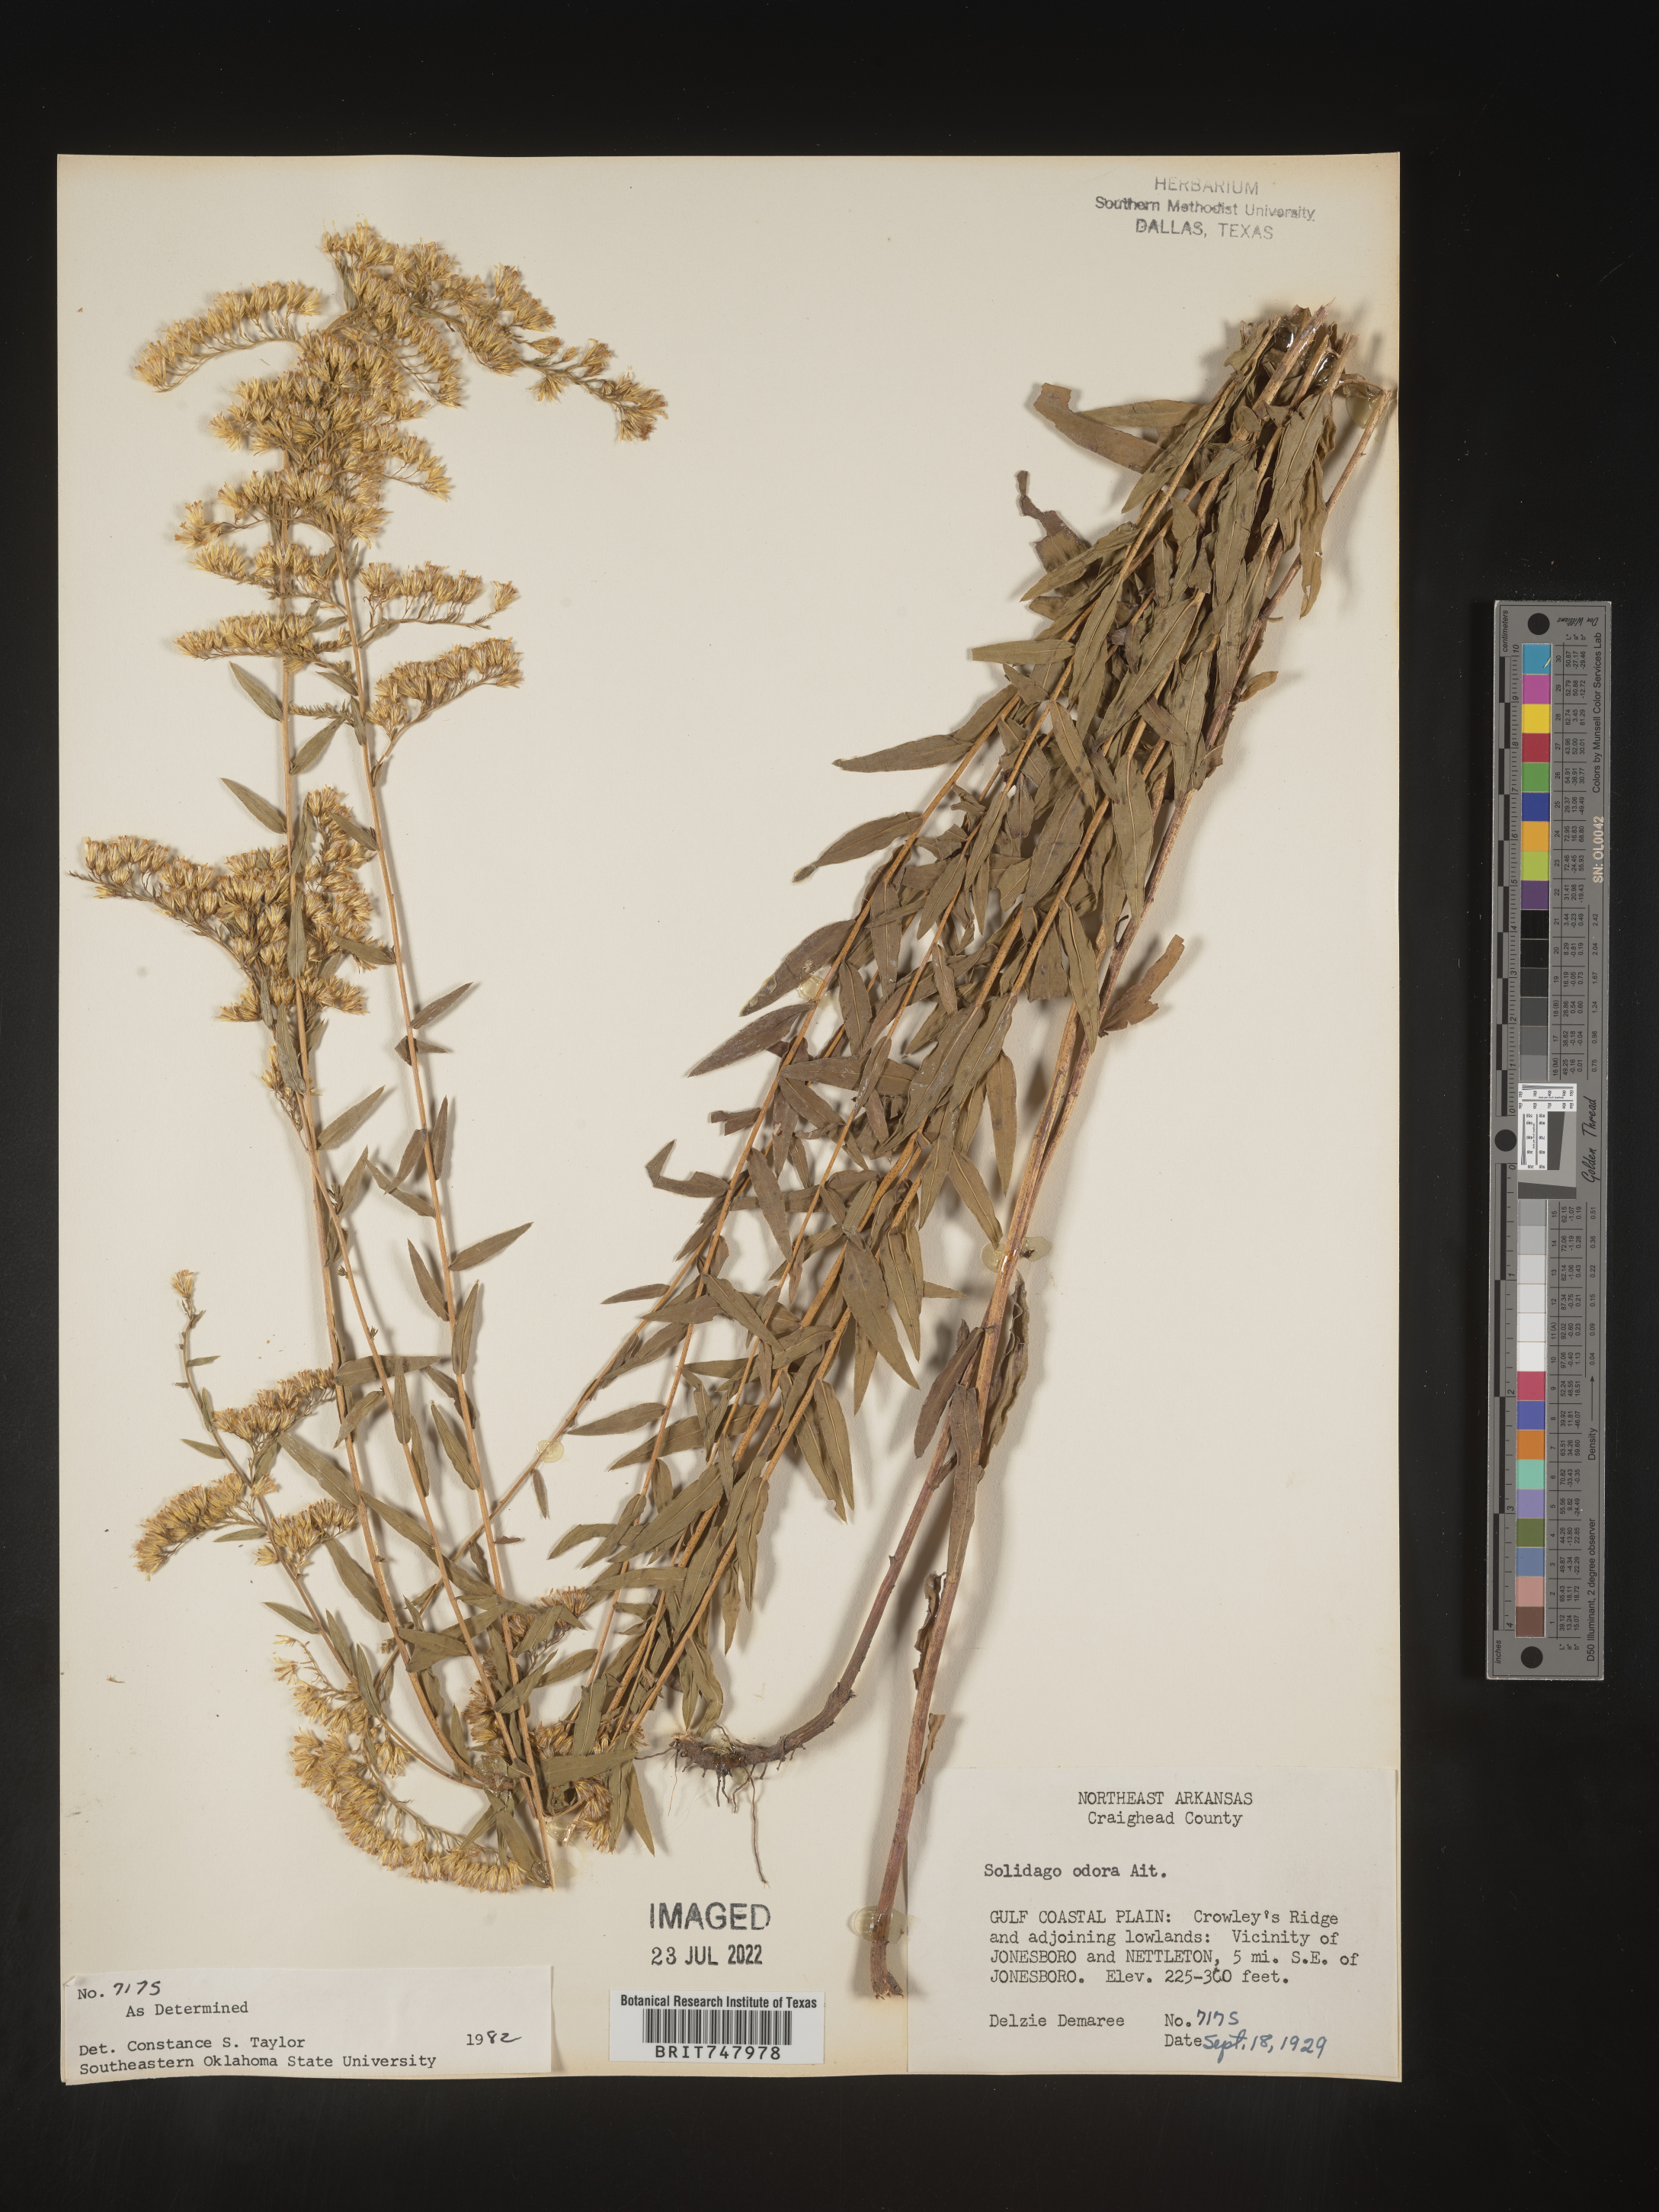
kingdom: Plantae
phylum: Tracheophyta
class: Magnoliopsida
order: Asterales
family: Asteraceae
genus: Solidago
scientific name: Solidago odora
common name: Anise-scented goldenrod
